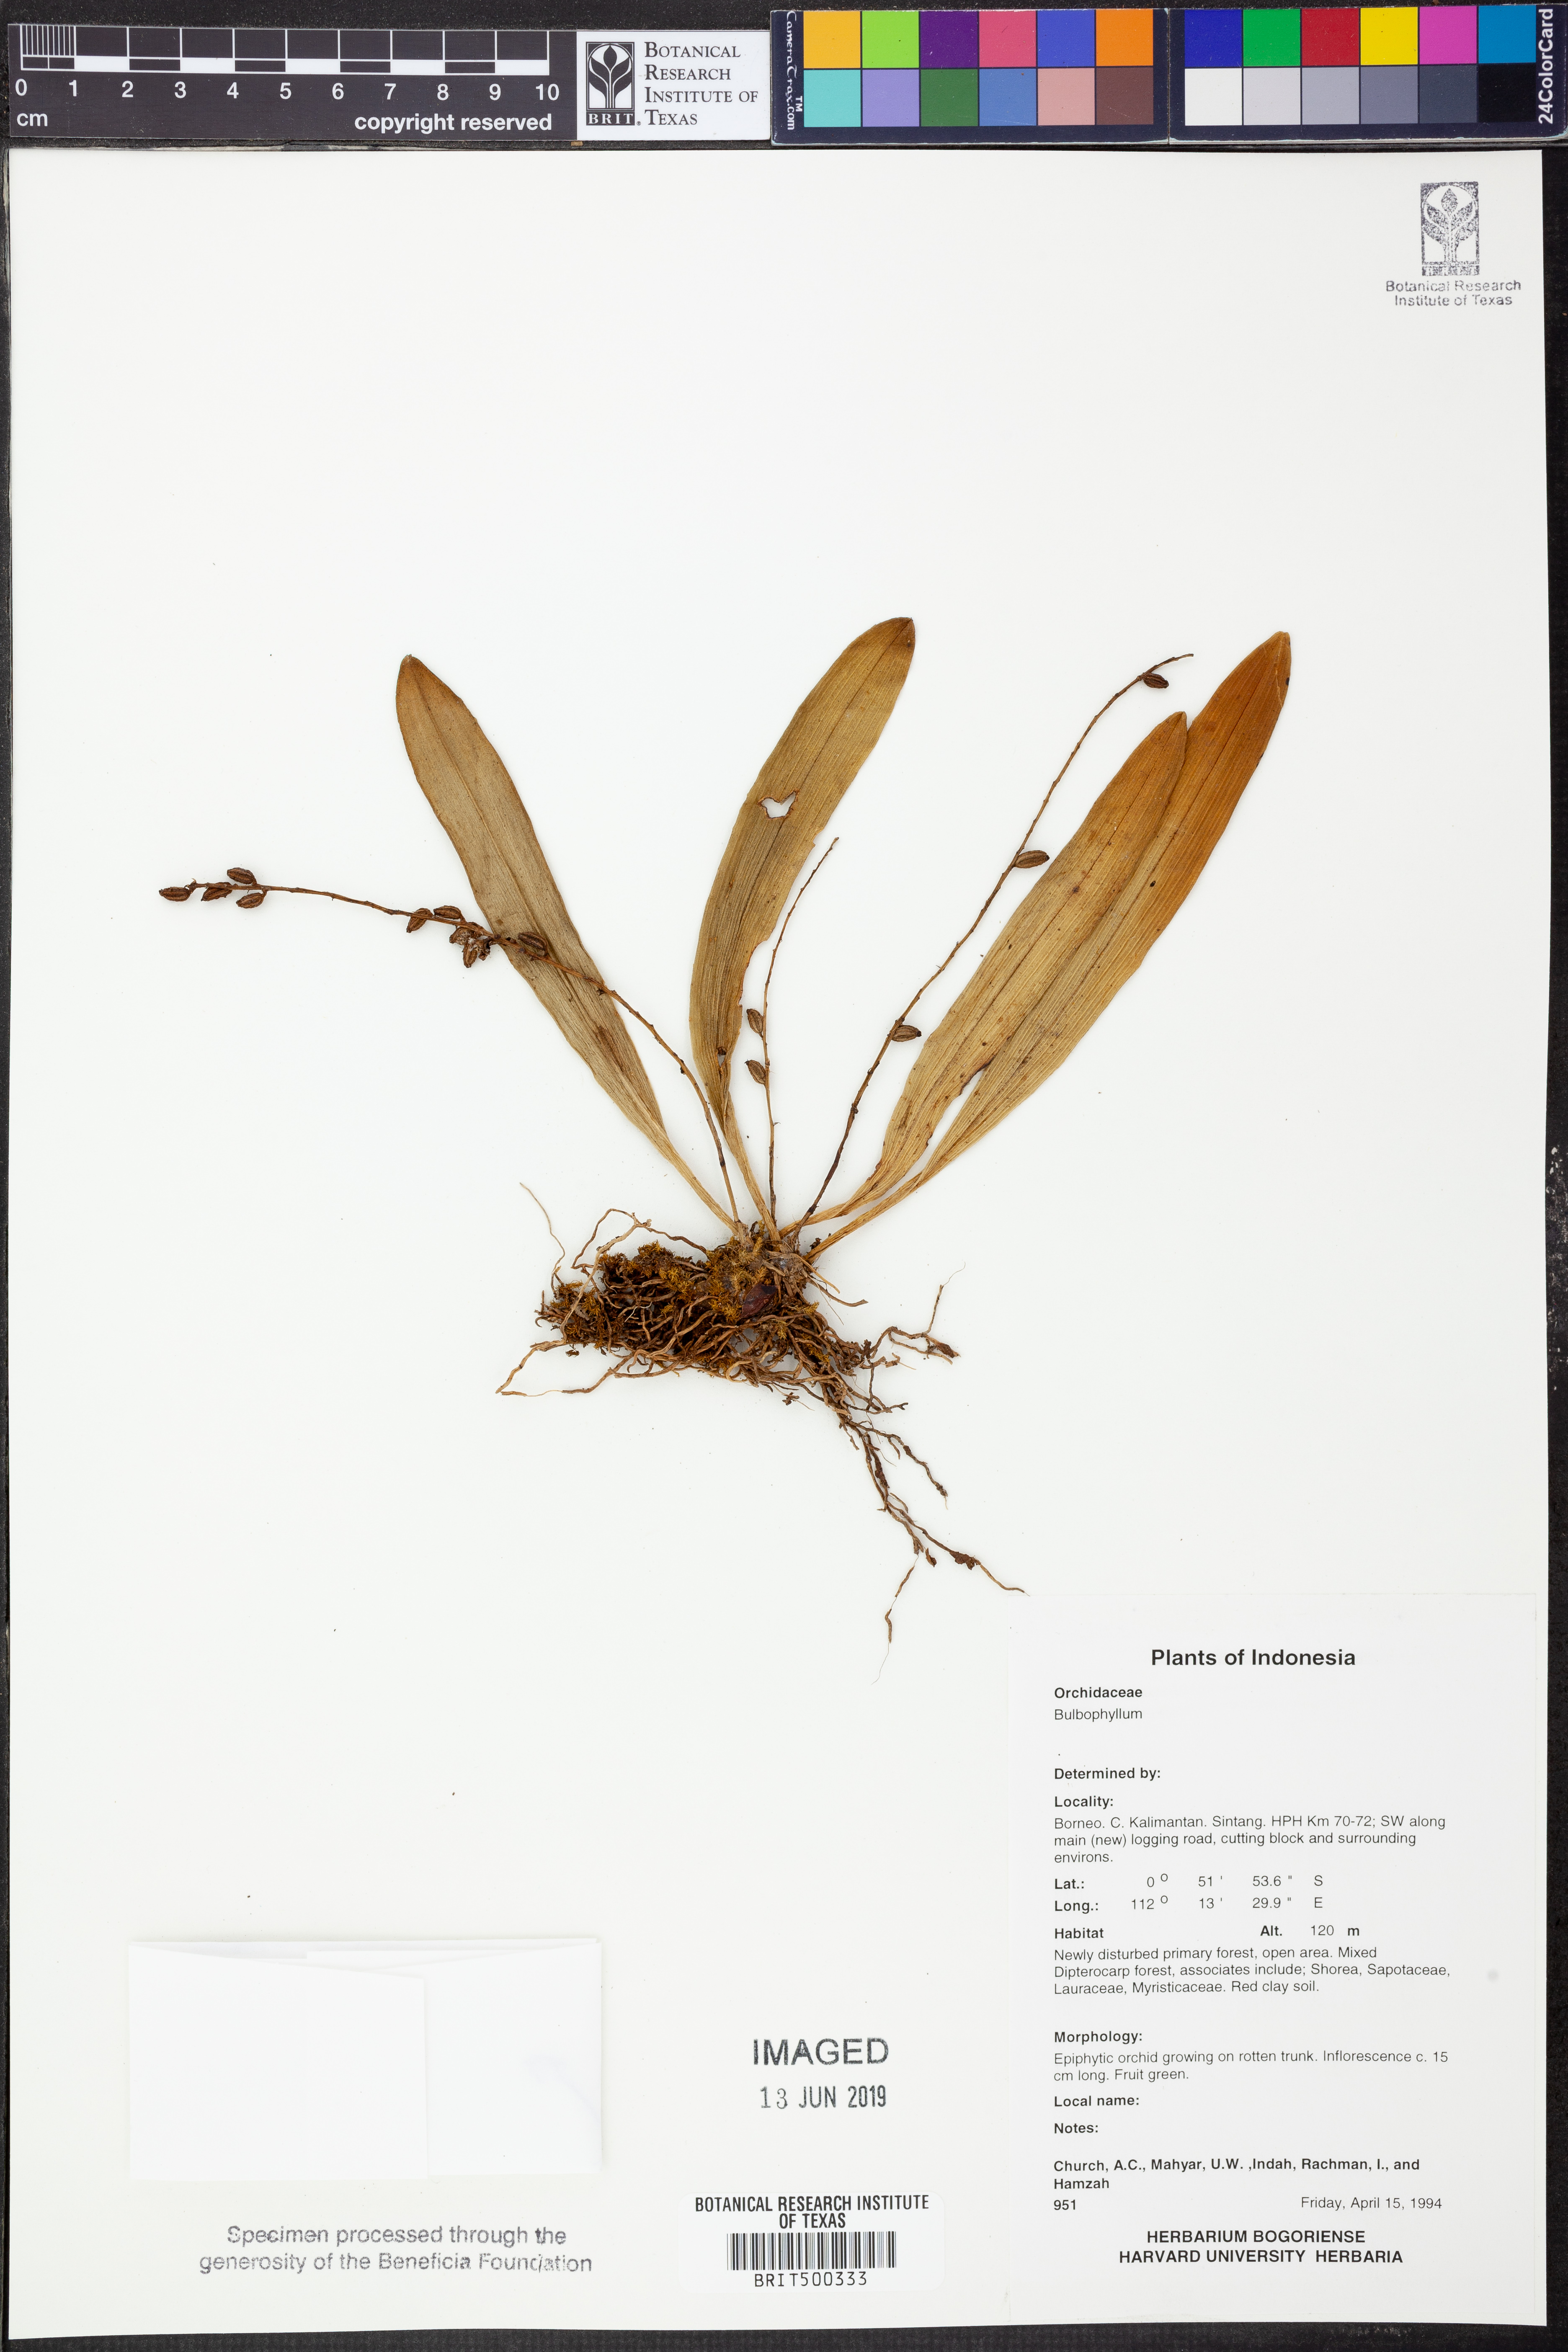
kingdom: Plantae
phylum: Tracheophyta
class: Liliopsida
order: Asparagales
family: Orchidaceae
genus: Bulbophyllum
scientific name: Bulbophyllum
